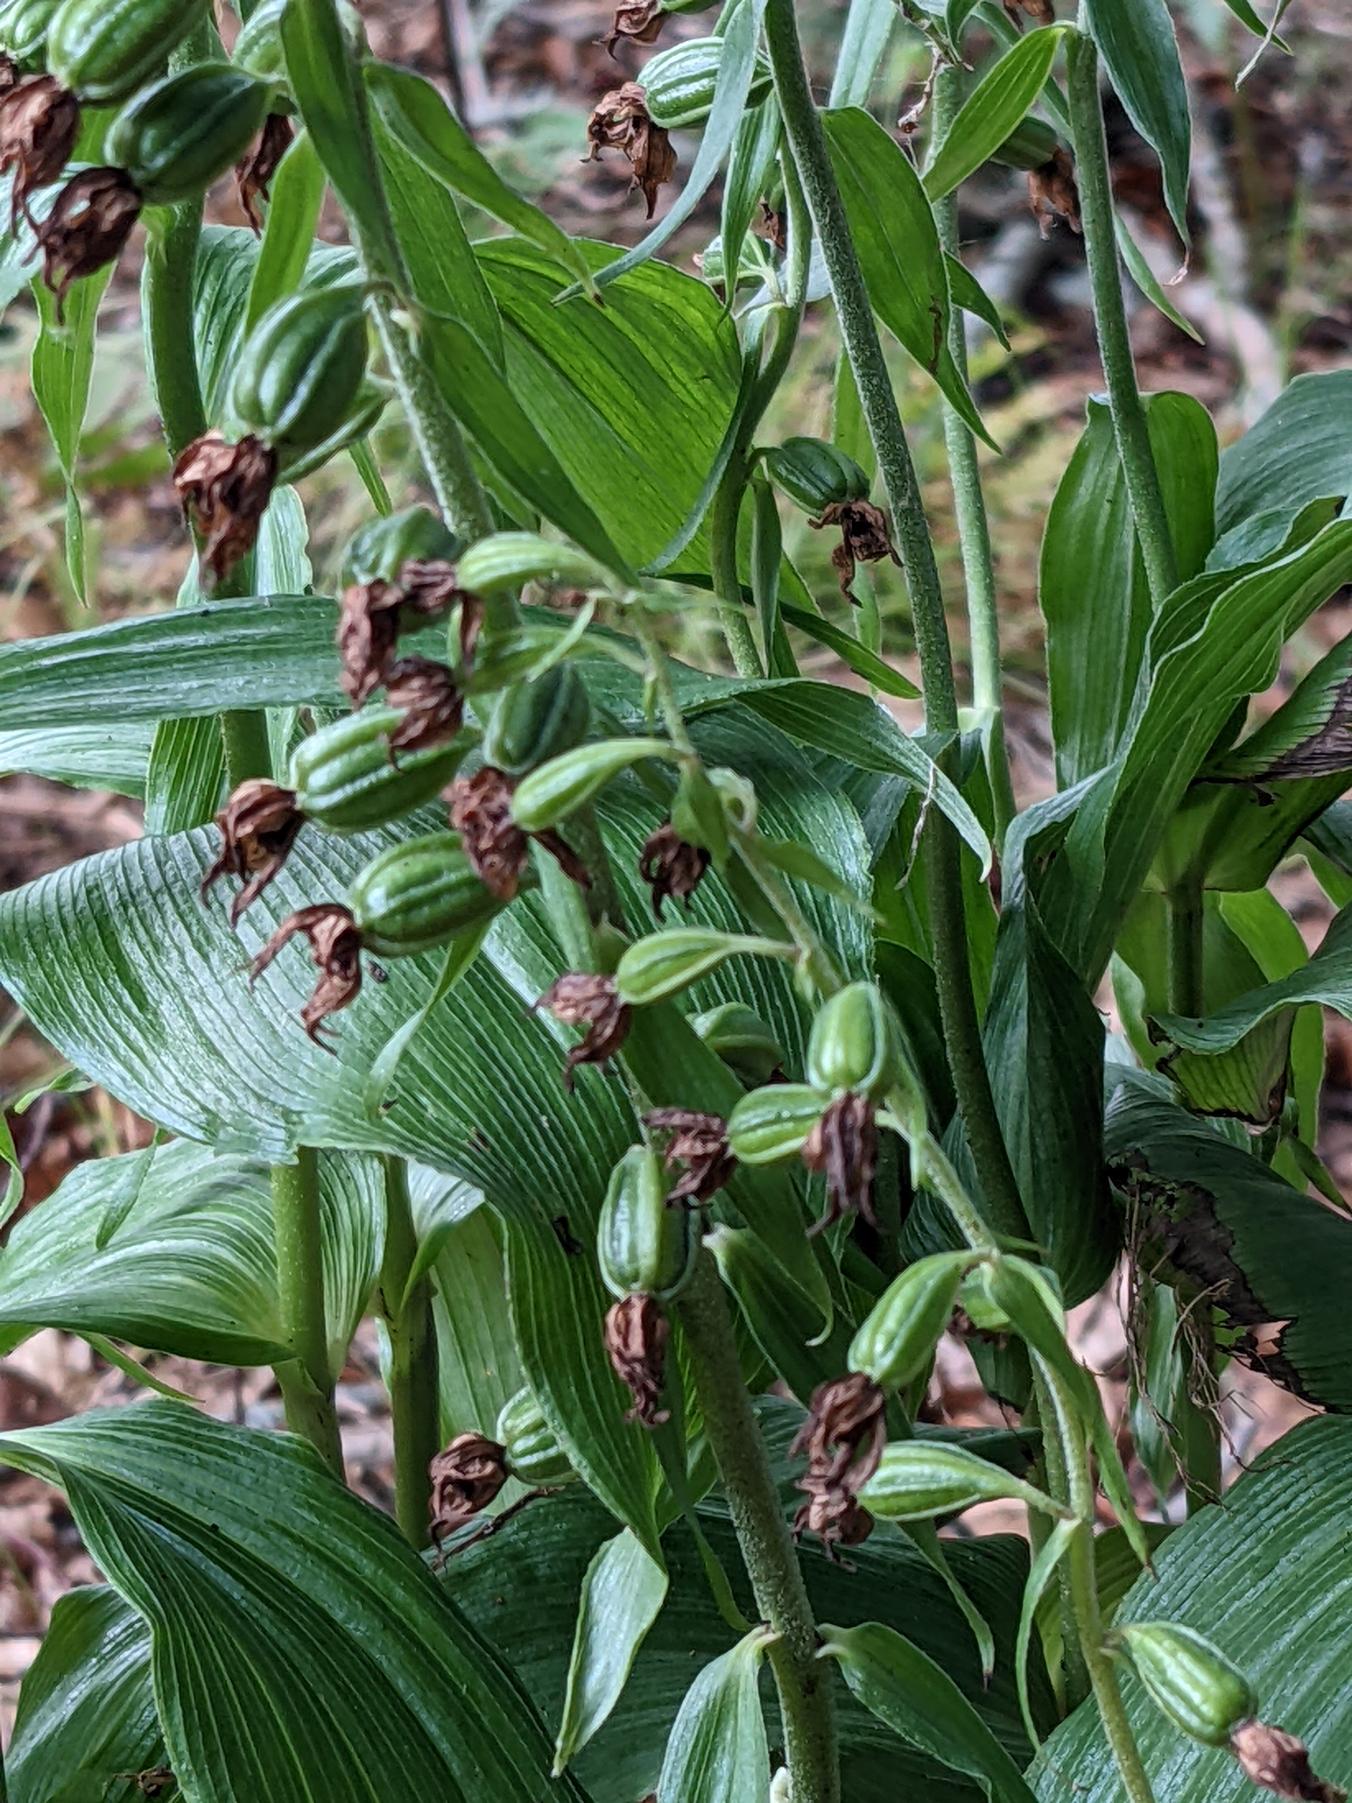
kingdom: Plantae
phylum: Tracheophyta
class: Liliopsida
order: Asparagales
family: Orchidaceae
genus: Epipactis
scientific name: Epipactis helleborine
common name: Skov-hullæbe
